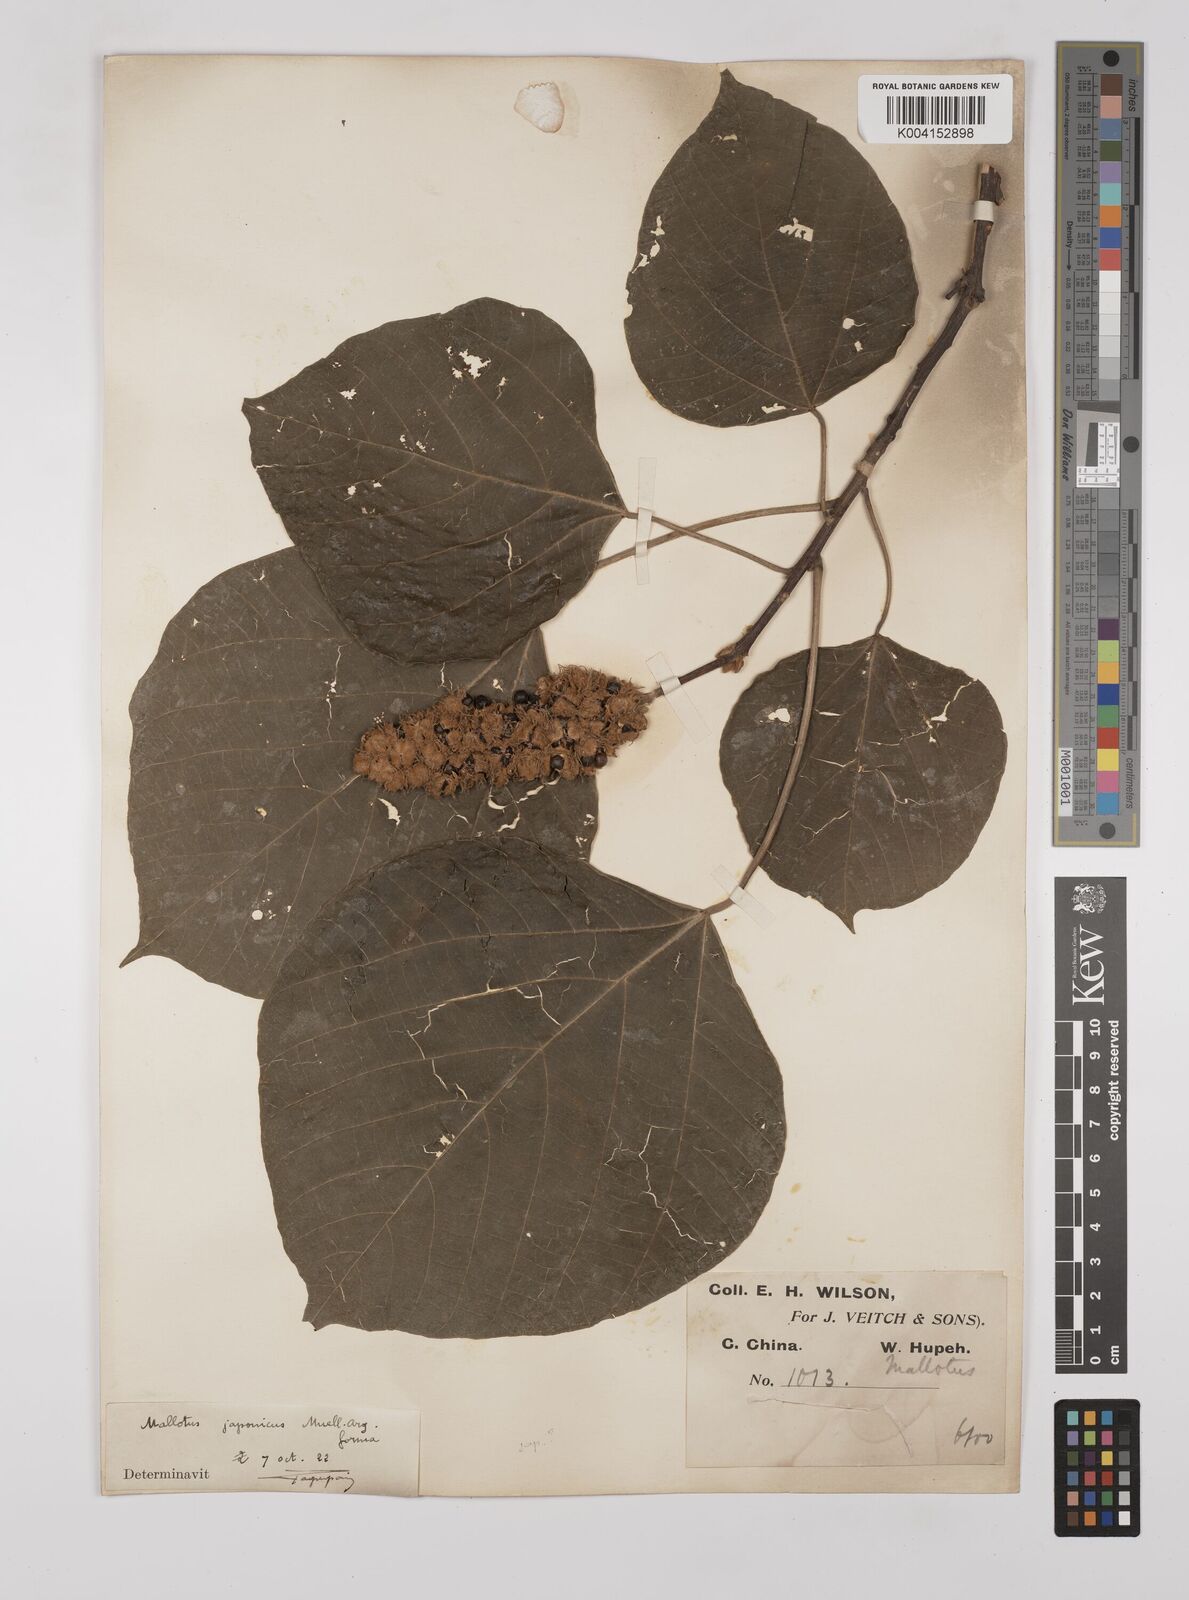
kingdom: Plantae
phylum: Tracheophyta
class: Magnoliopsida
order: Malpighiales
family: Euphorbiaceae
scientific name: Euphorbiaceae
